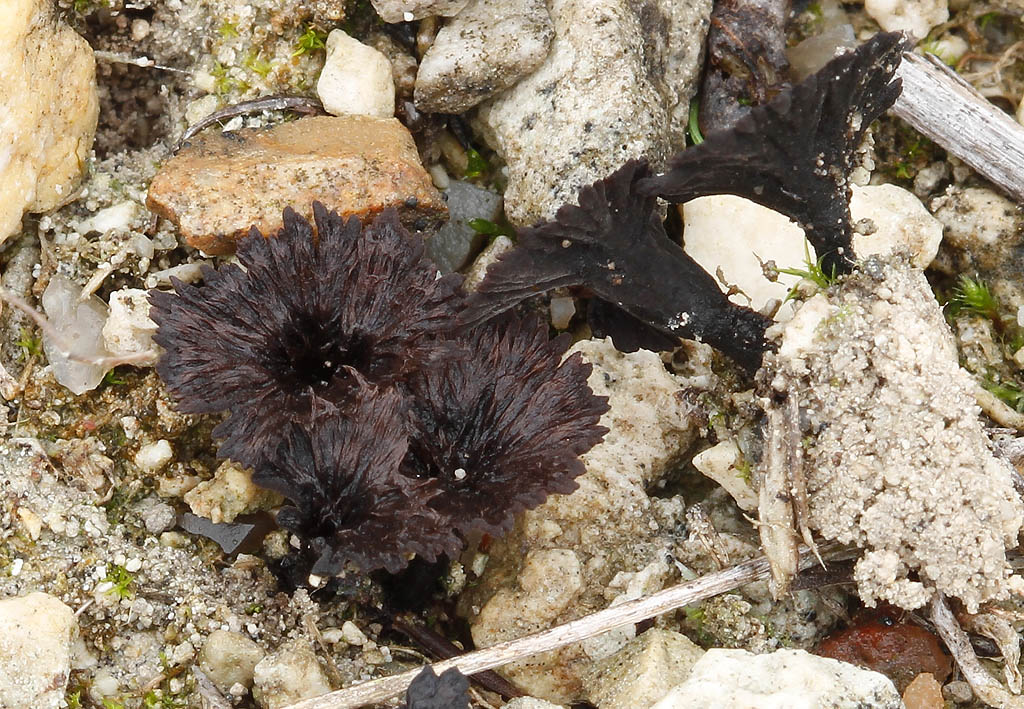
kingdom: Fungi
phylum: Basidiomycota
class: Agaricomycetes
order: Thelephorales
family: Thelephoraceae
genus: Thelephora
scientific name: Thelephora caryophyllea
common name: tragt-frynsesvamp
